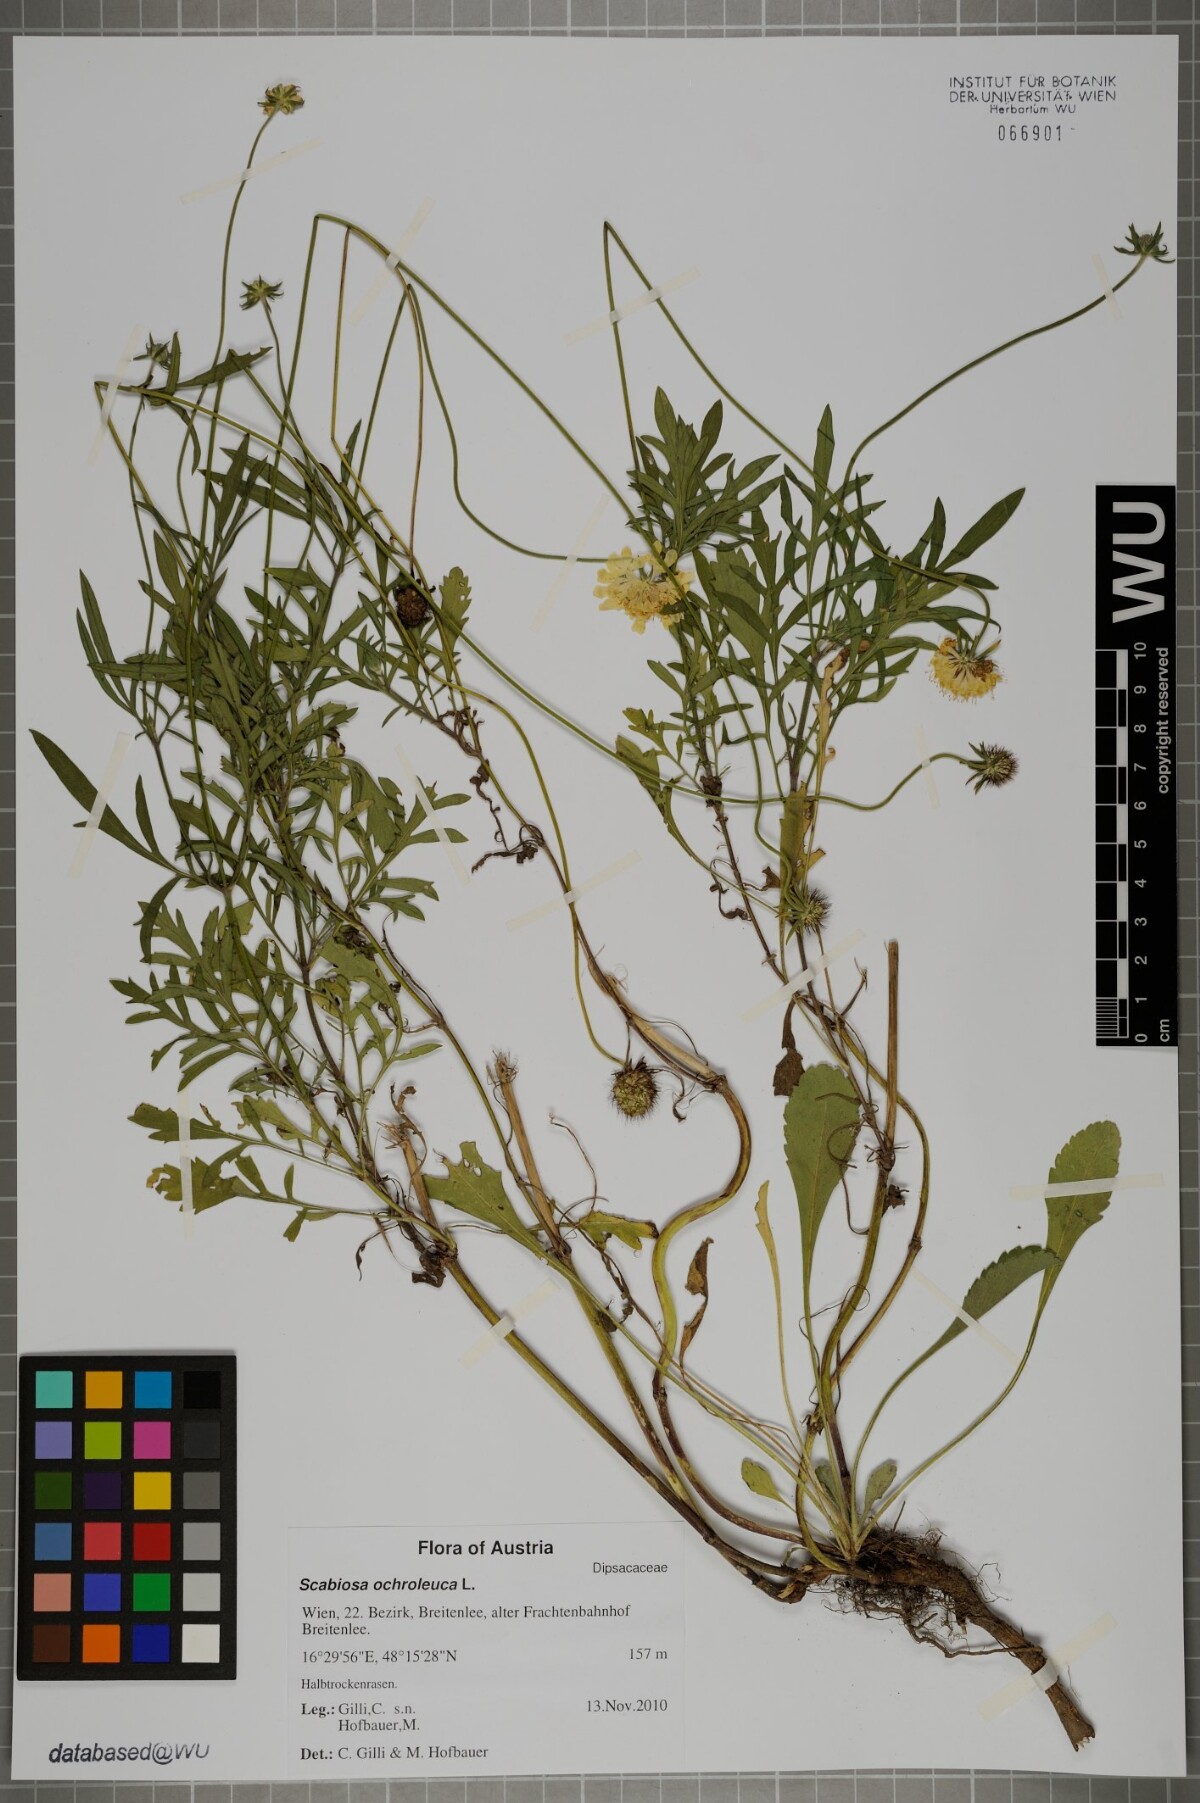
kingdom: Plantae
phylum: Tracheophyta
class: Magnoliopsida
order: Dipsacales
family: Caprifoliaceae
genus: Scabiosa
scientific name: Scabiosa ochroleuca
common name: Cream pincushions
